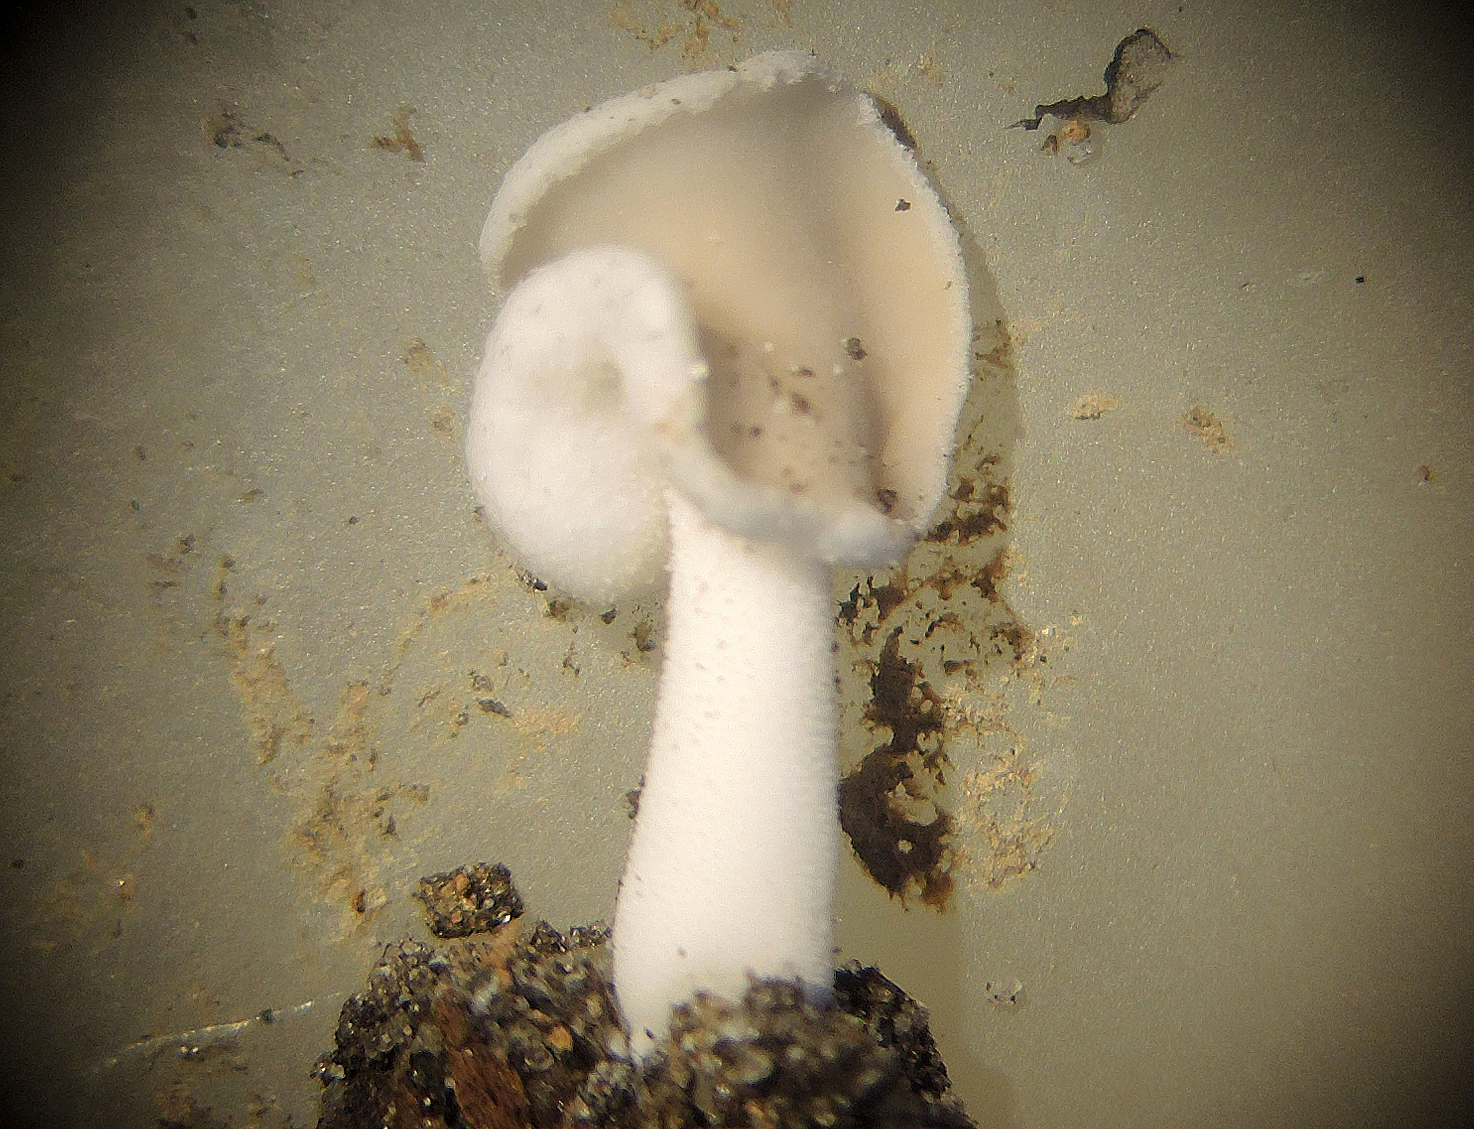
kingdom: Fungi
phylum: Ascomycota
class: Pezizomycetes
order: Pezizales
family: Helvellaceae
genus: Helvella
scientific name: Helvella sublicia
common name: saddel-foldhat
